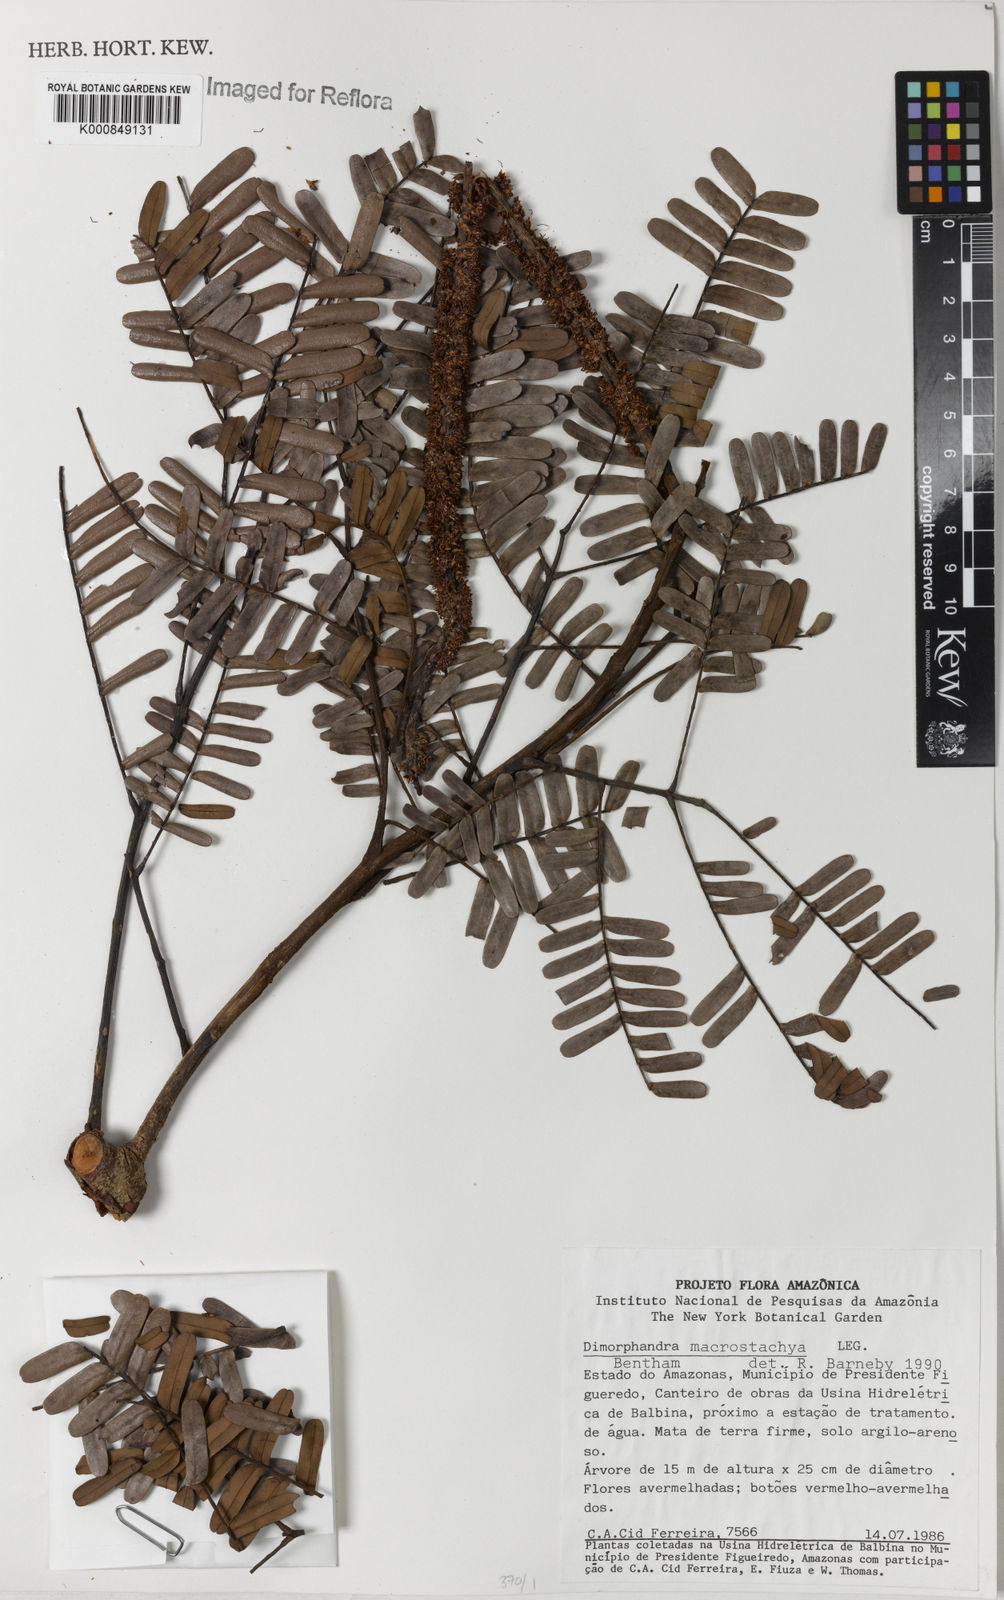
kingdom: Plantae
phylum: Tracheophyta
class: Magnoliopsida
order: Fabales
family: Fabaceae
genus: Dimorphandra
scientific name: Dimorphandra macrostachya
